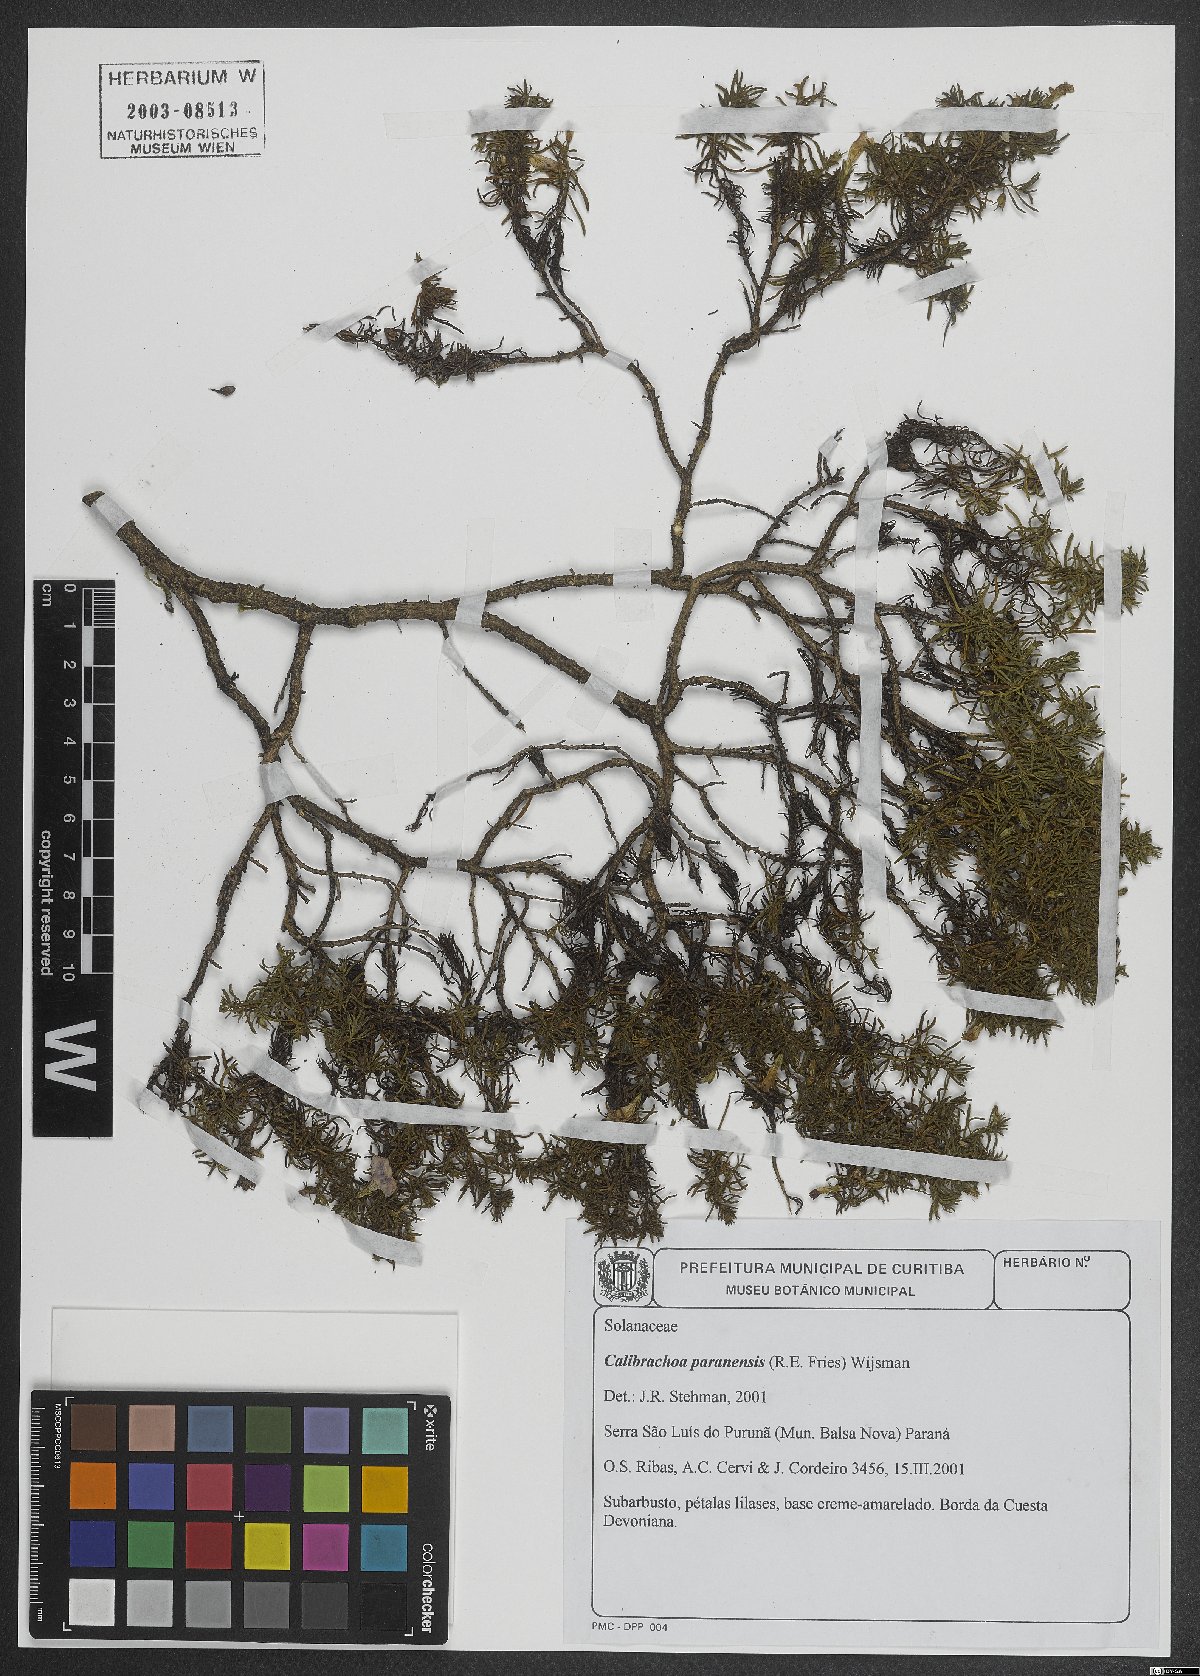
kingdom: Plantae
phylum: Tracheophyta
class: Magnoliopsida
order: Solanales
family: Solanaceae
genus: Calibrachoa
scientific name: Calibrachoa paranensis
